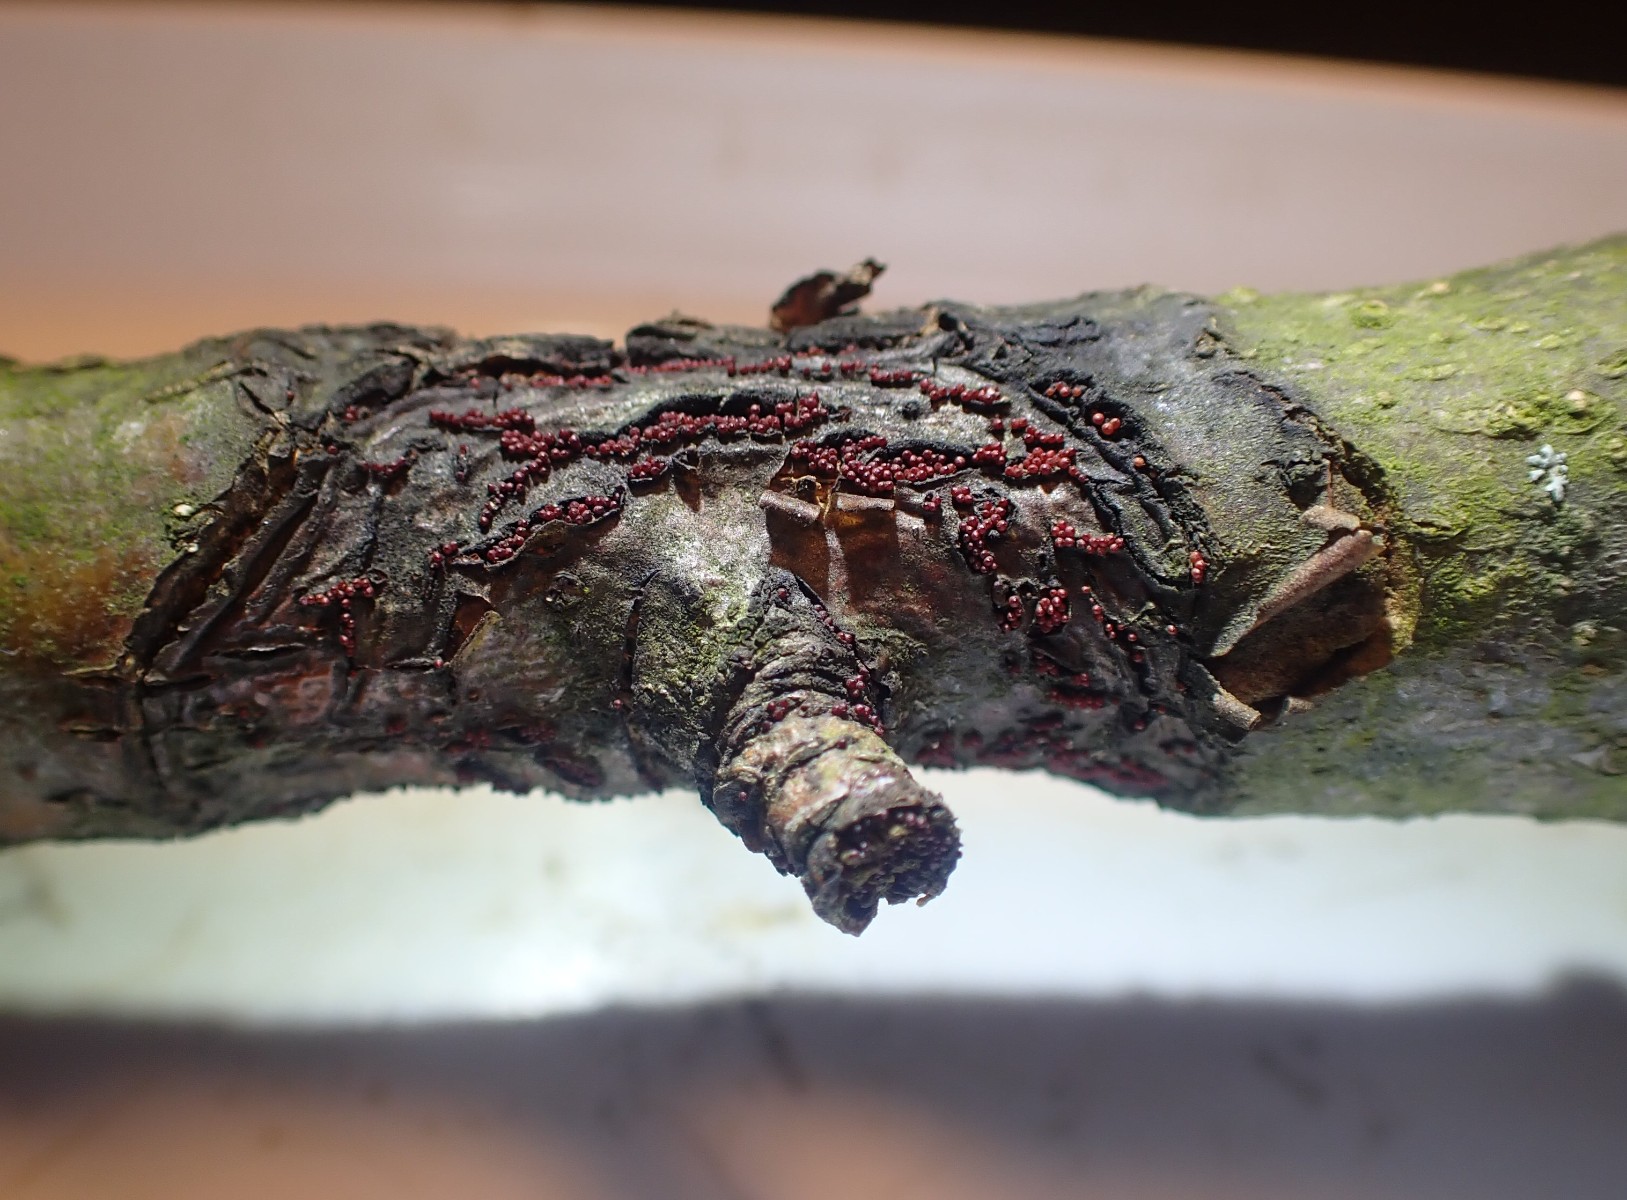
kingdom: Fungi
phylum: Ascomycota
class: Sordariomycetes
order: Hypocreales
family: Nectriaceae
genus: Neonectria
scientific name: Neonectria ditissima
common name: frugttræ-cinnobersvamp
